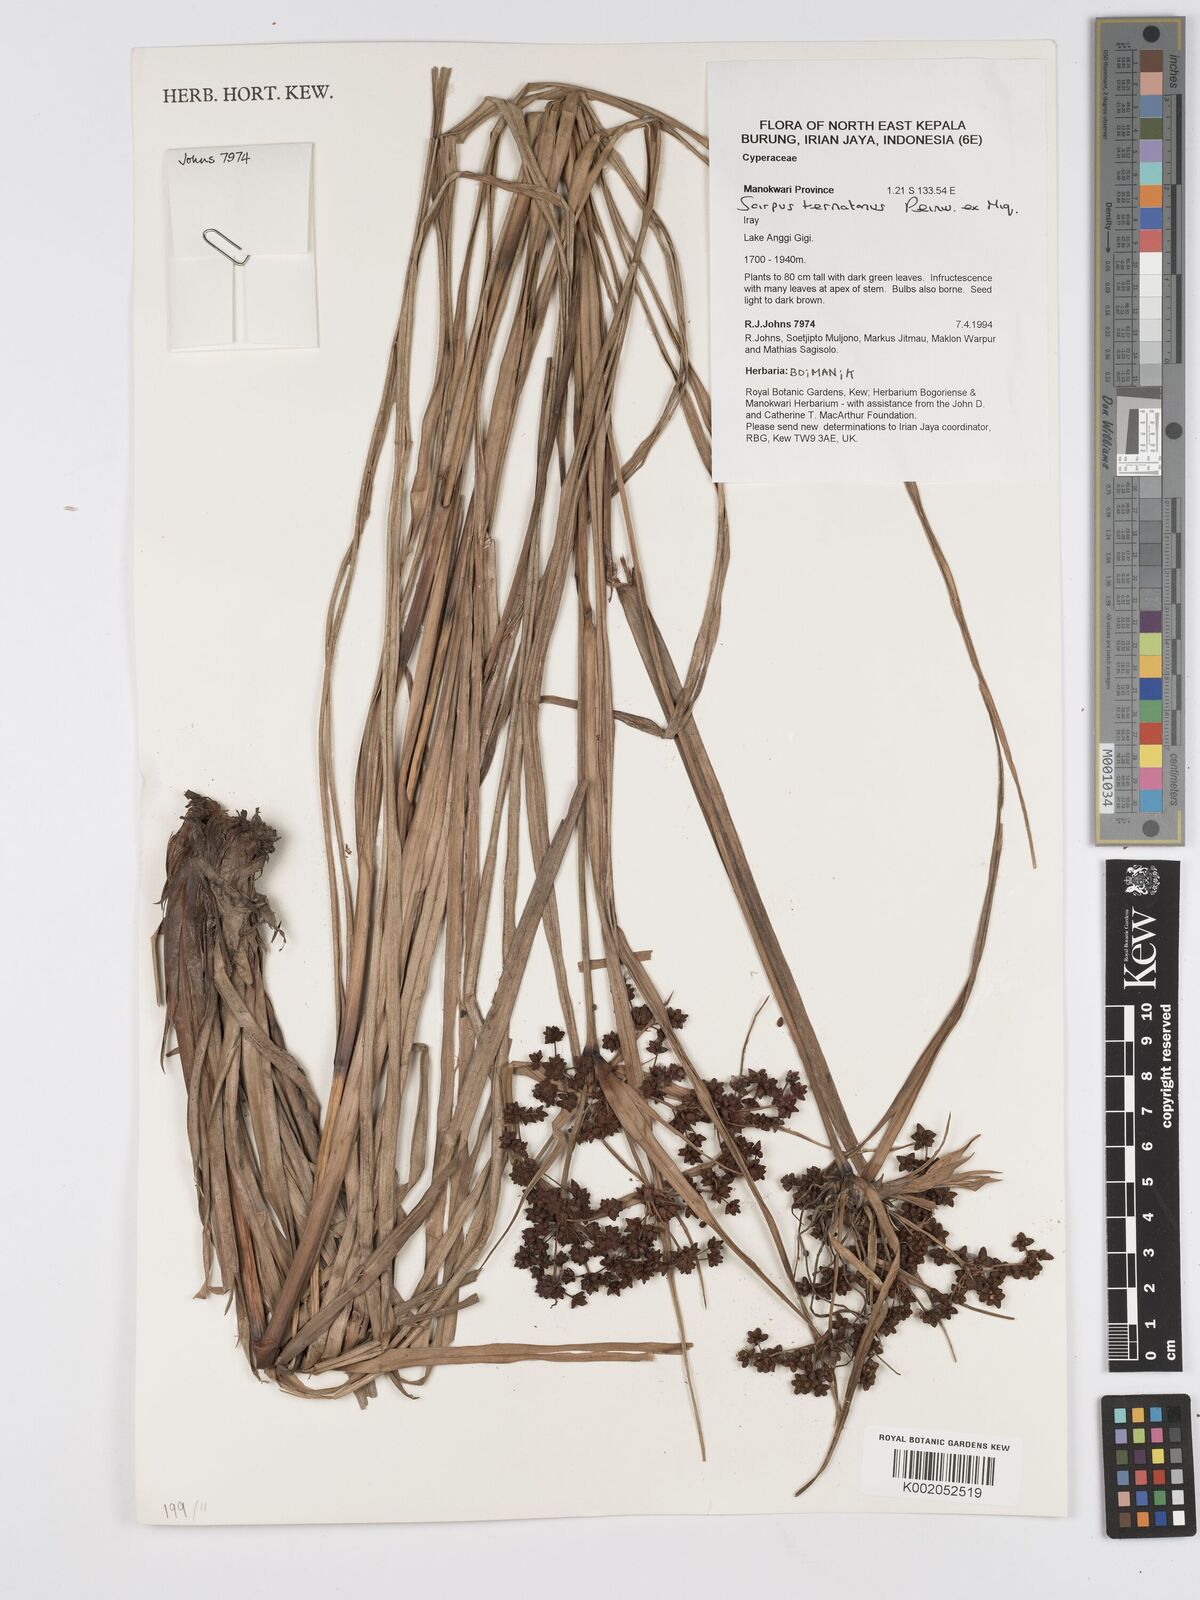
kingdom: Plantae
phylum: Tracheophyta
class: Liliopsida
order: Poales
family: Cyperaceae
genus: Scirpus
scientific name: Scirpus ternatanus
